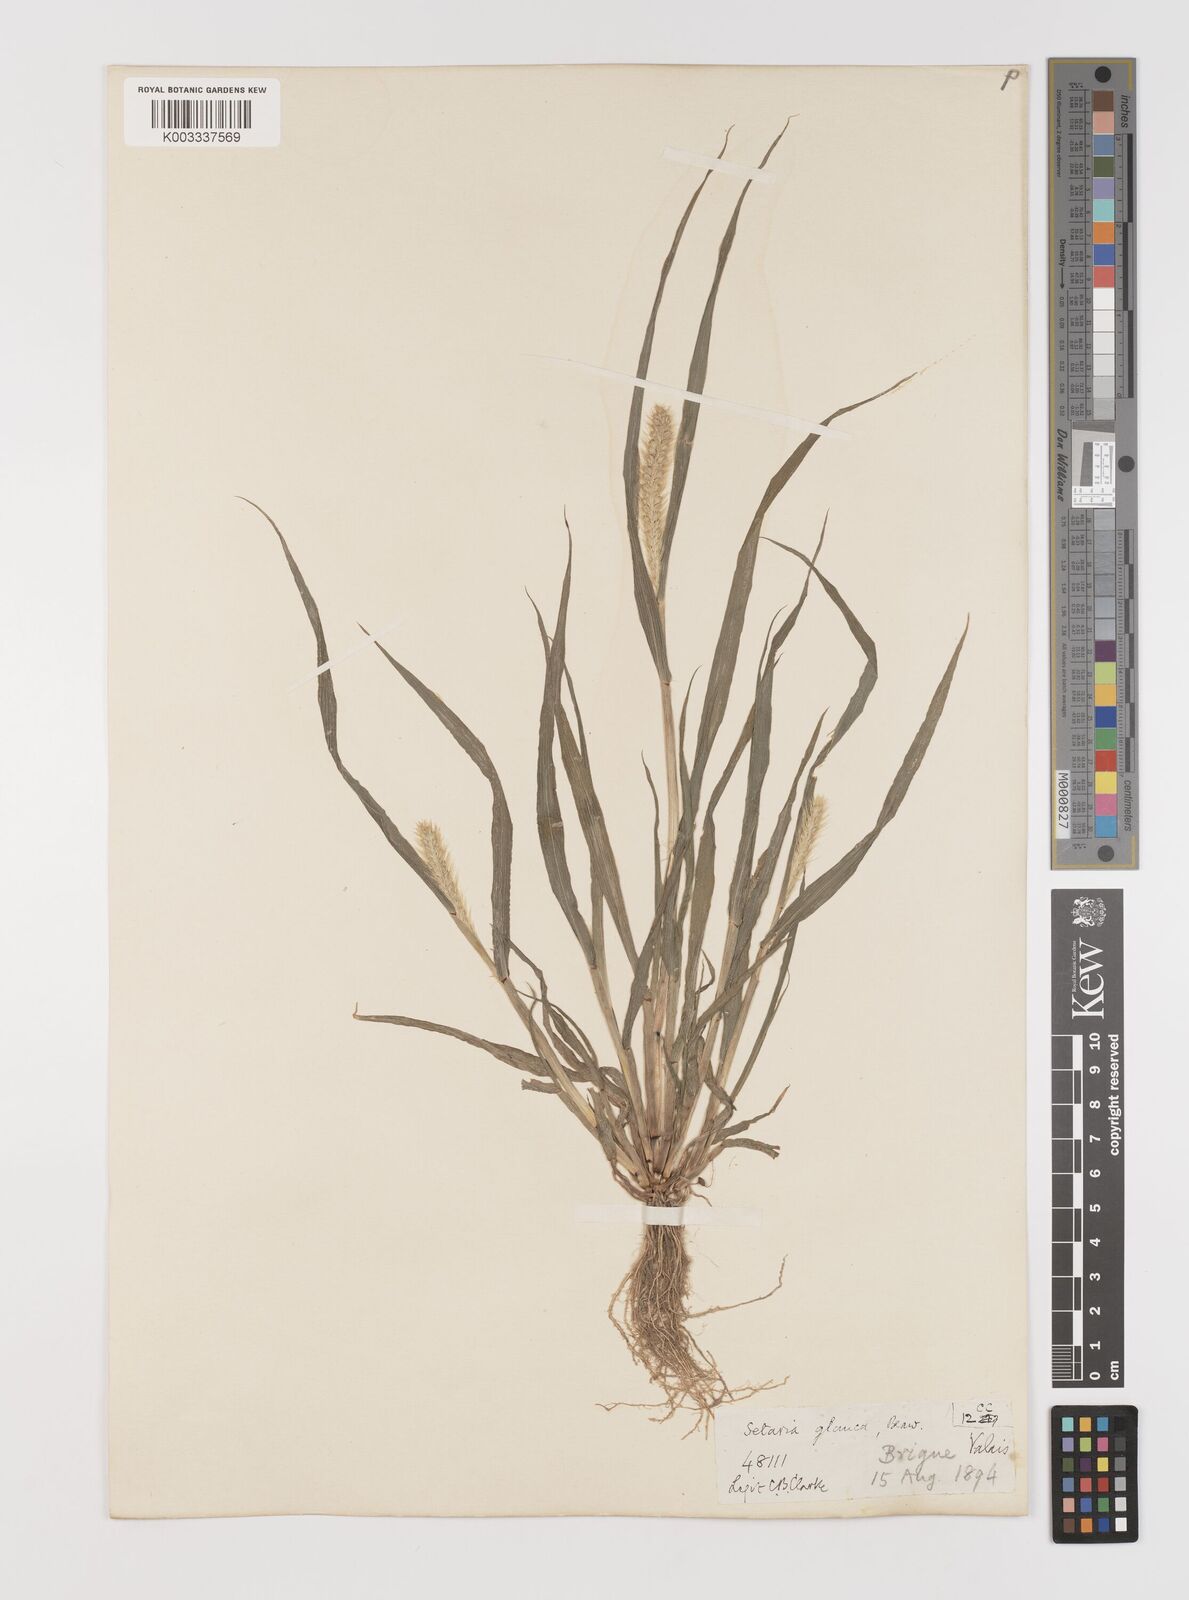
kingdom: Plantae
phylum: Tracheophyta
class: Liliopsida
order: Poales
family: Poaceae
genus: Setaria
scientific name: Setaria pumila
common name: Yellow bristle-grass
